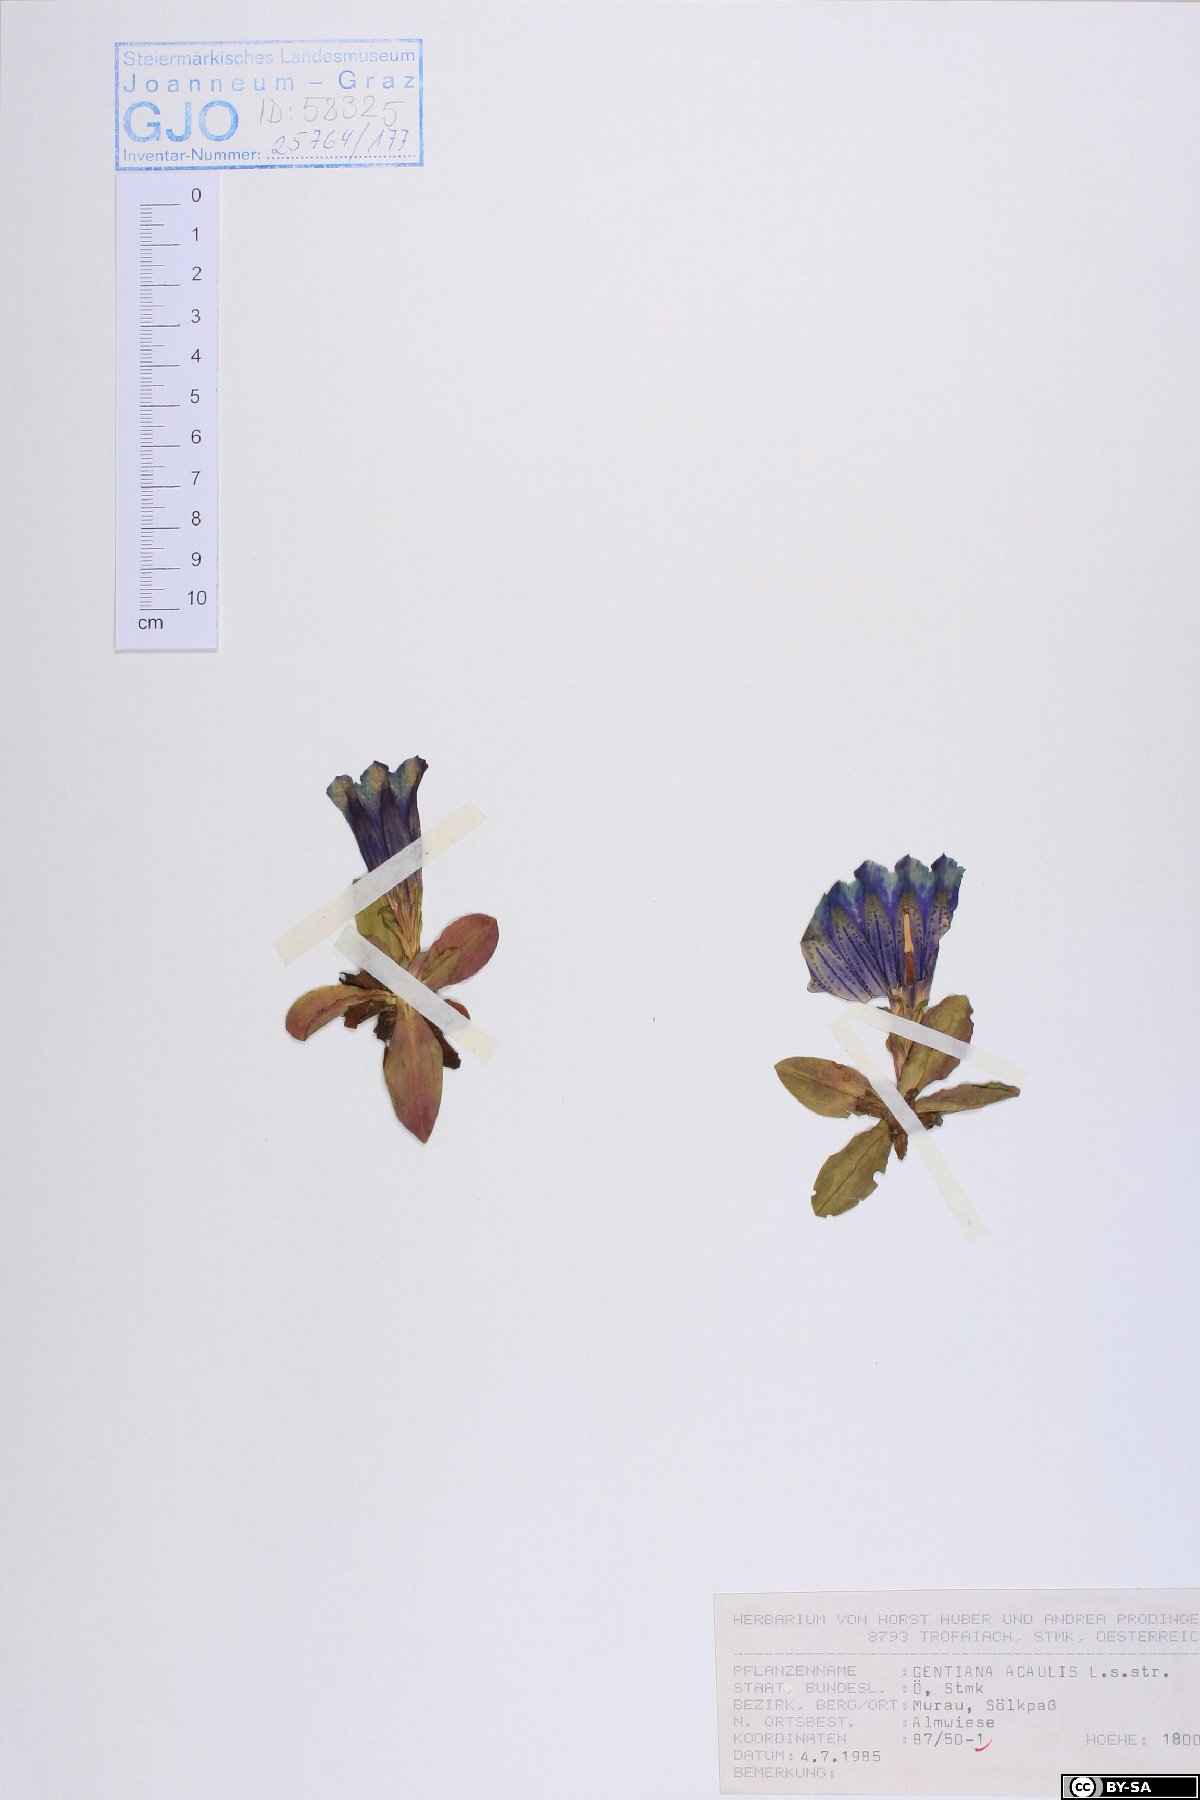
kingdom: Plantae
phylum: Tracheophyta
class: Magnoliopsida
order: Gentianales
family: Gentianaceae
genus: Gentiana
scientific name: Gentiana acaulis
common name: Trumpet gentian
